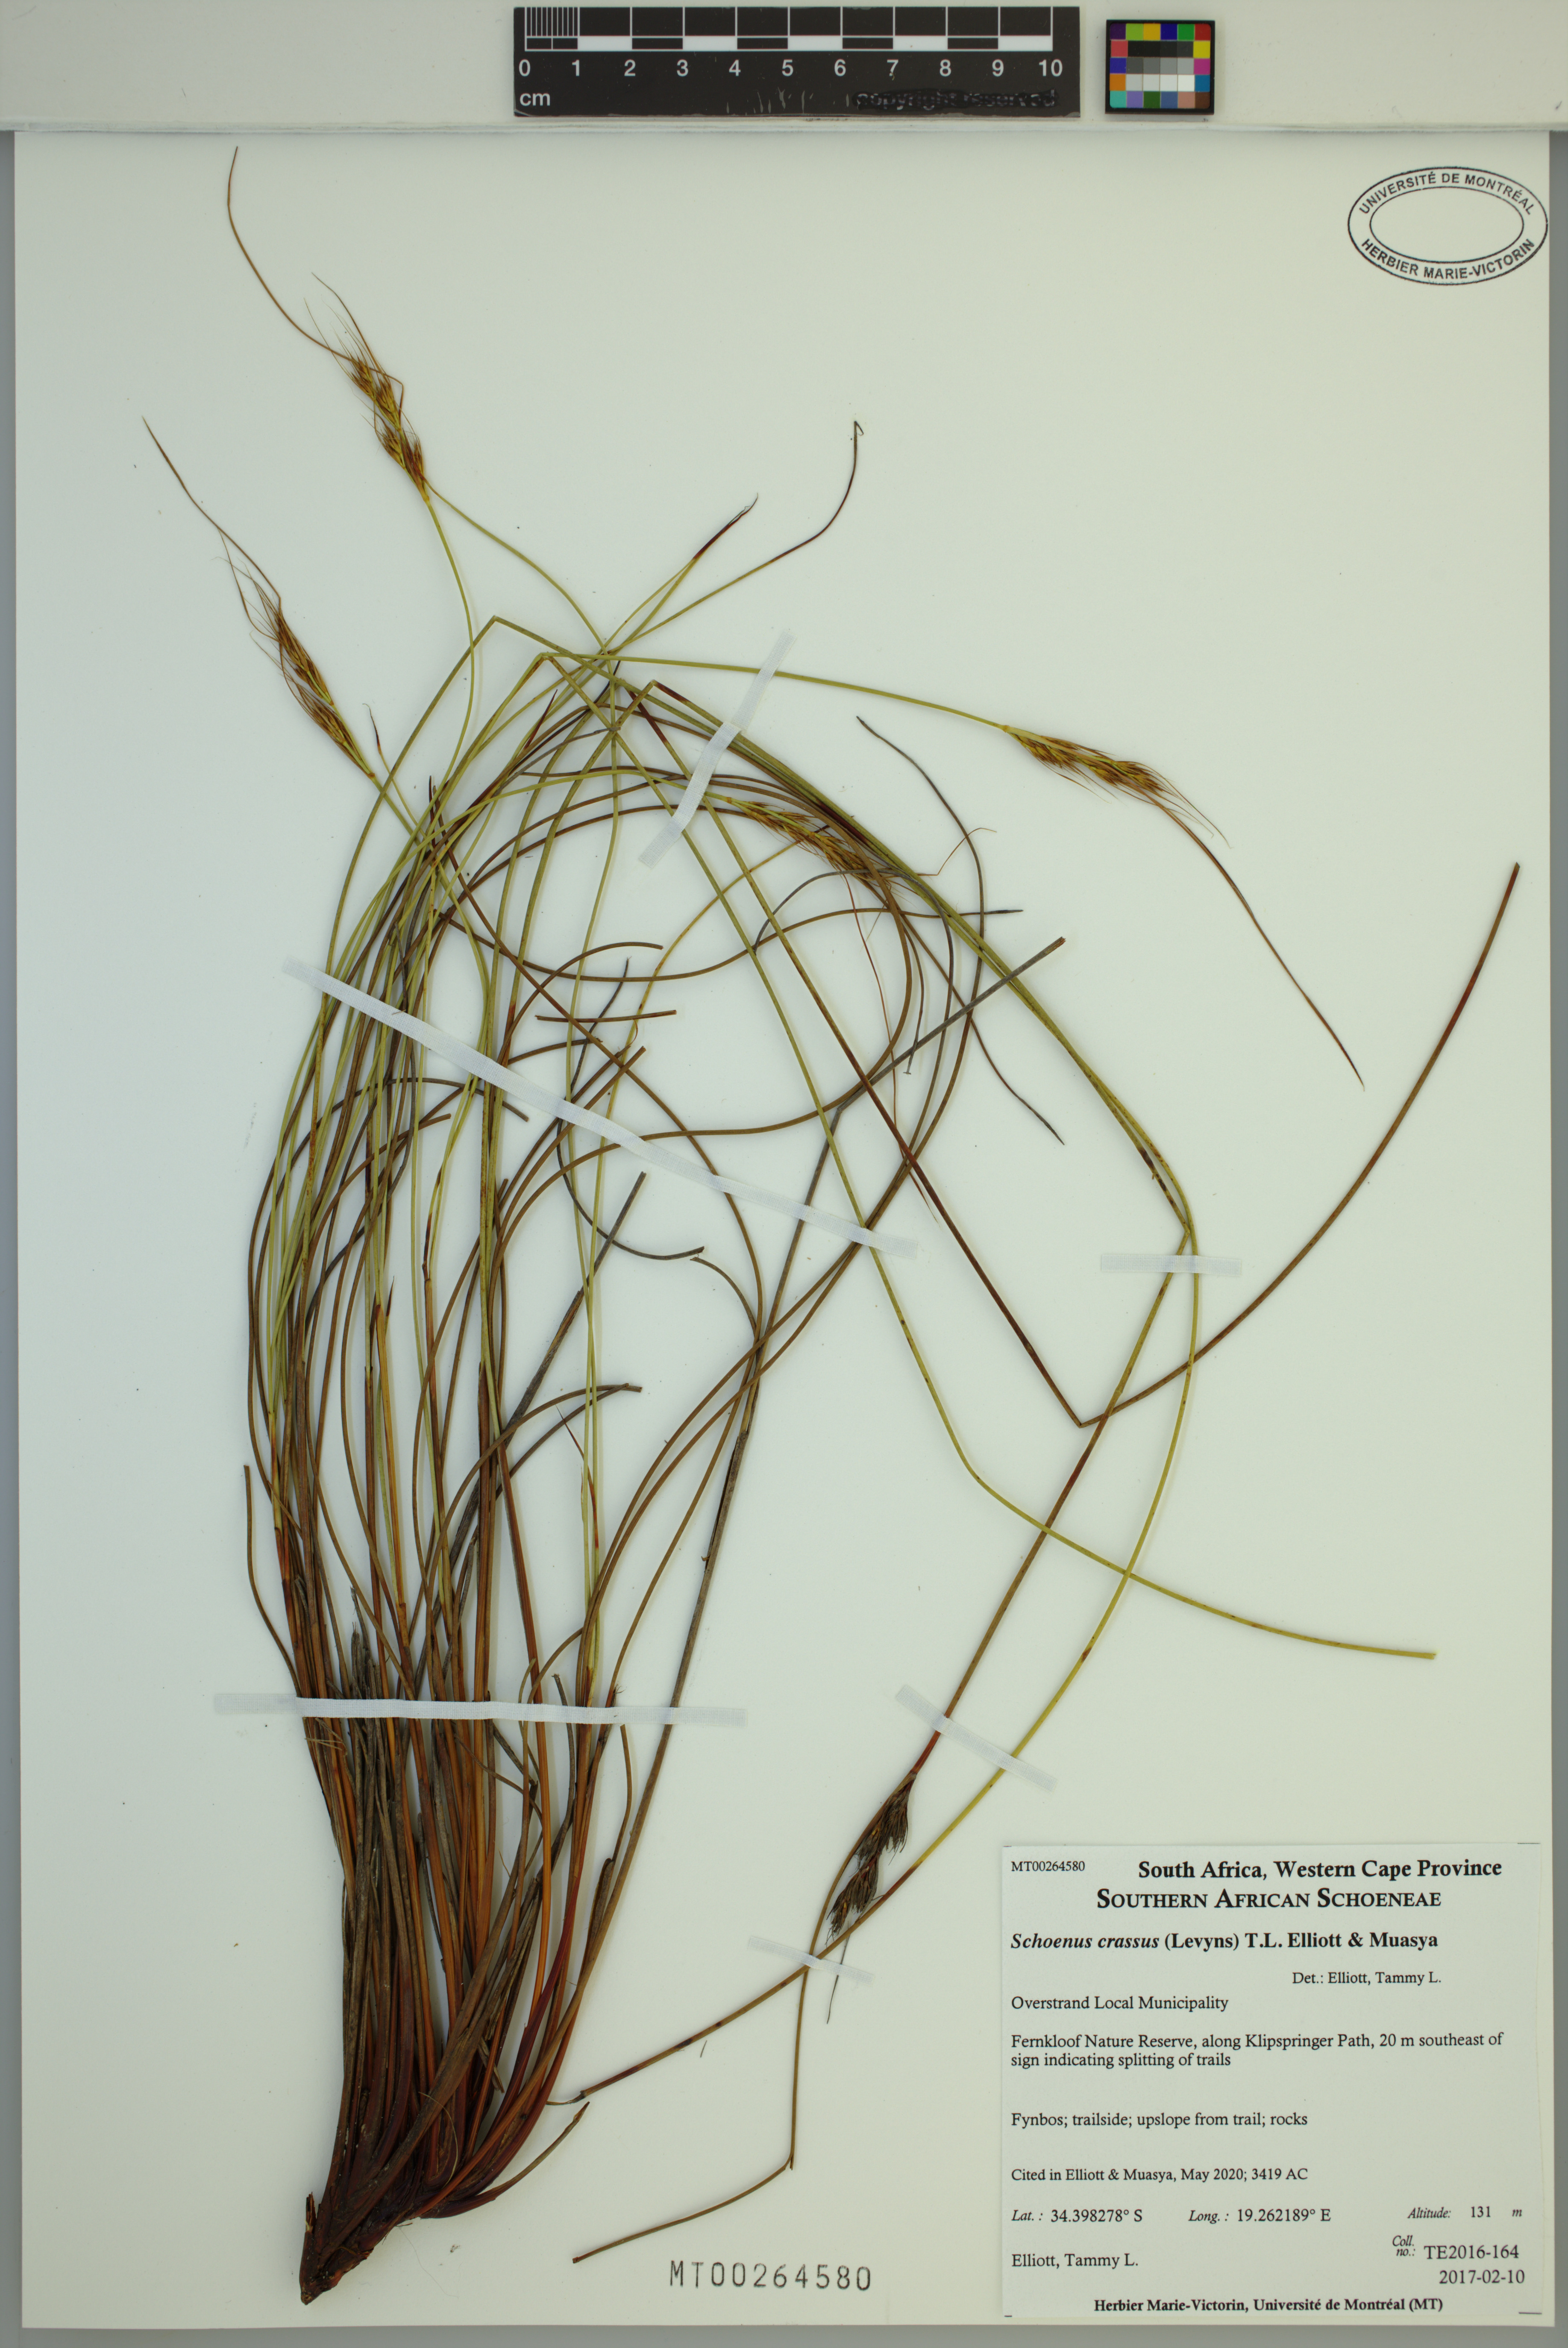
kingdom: Plantae
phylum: Tracheophyta
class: Liliopsida
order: Poales
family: Cyperaceae
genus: Schoenus
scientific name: Schoenus crassus
